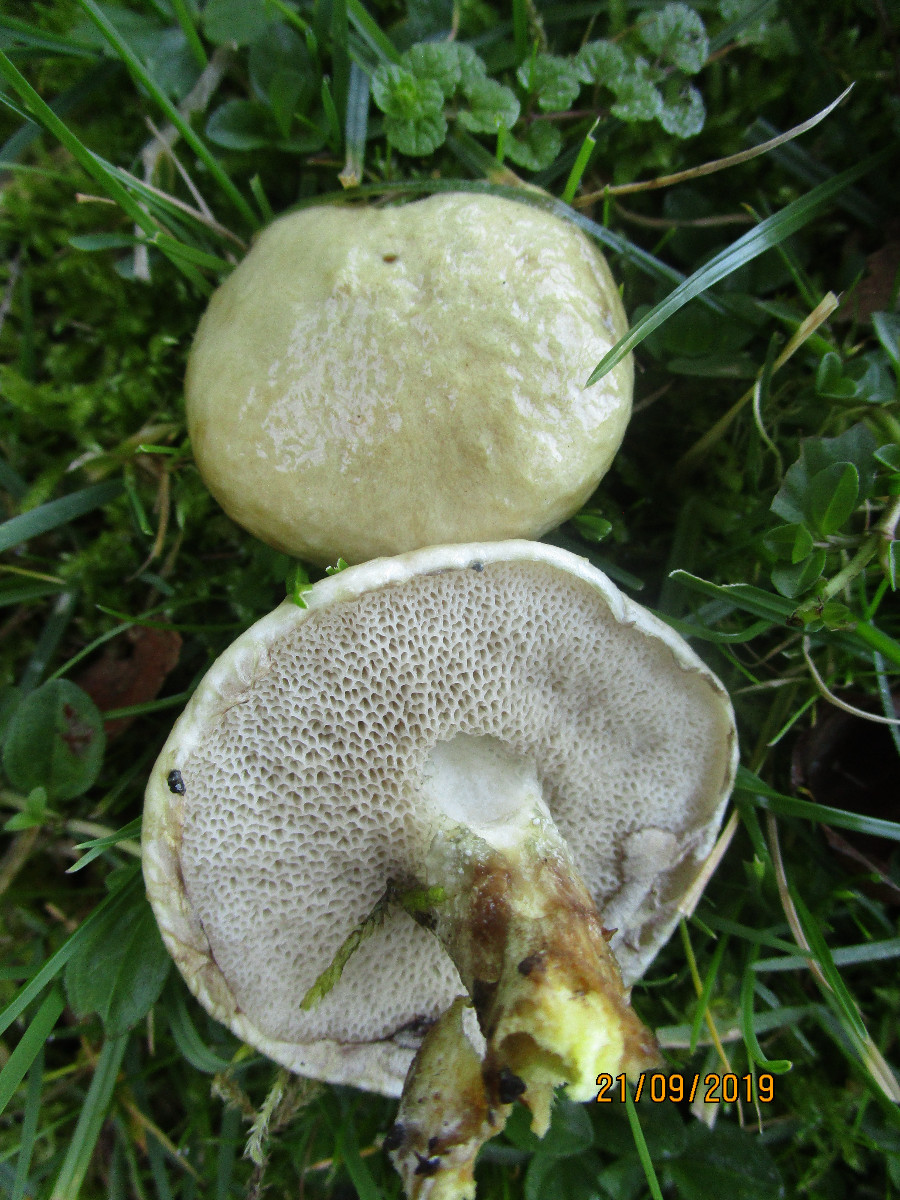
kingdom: Fungi
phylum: Basidiomycota
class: Agaricomycetes
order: Boletales
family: Suillaceae
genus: Suillus
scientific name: Suillus viscidus
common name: olivengrå slimrørhat
